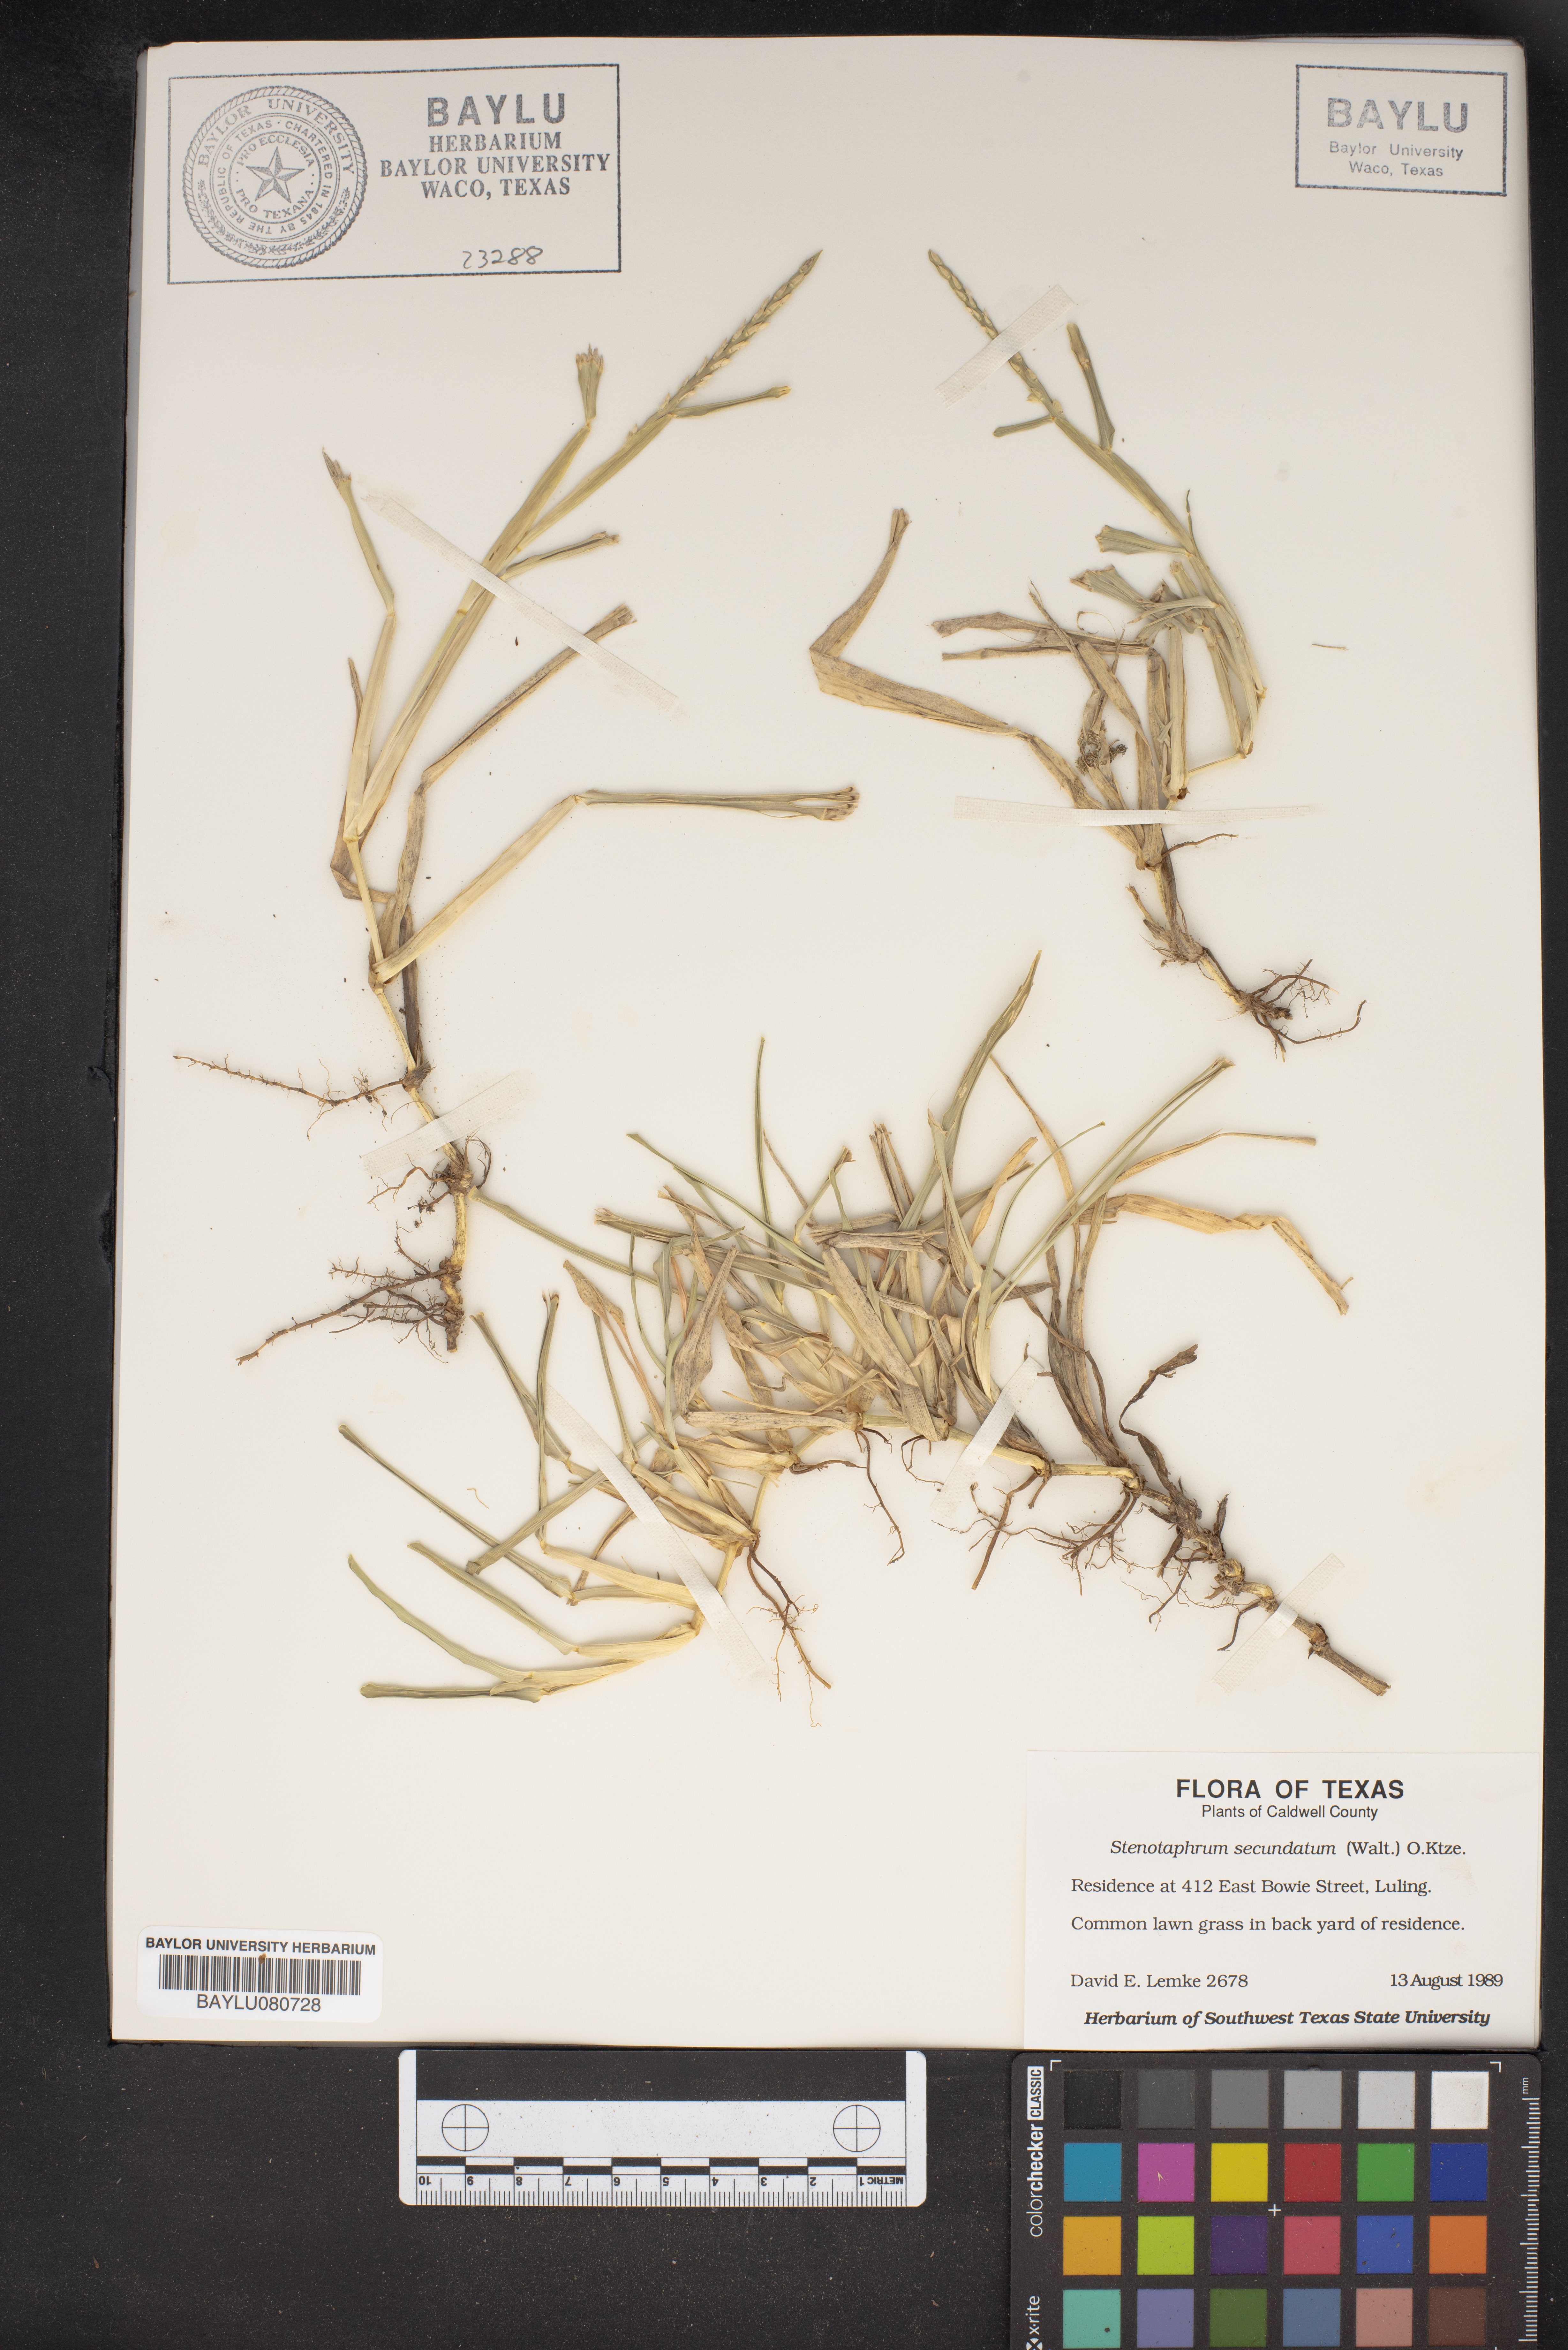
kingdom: Plantae
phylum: Tracheophyta
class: Liliopsida
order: Poales
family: Poaceae
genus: Stenotaphrum
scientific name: Stenotaphrum secundatum
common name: St. augustine grass
